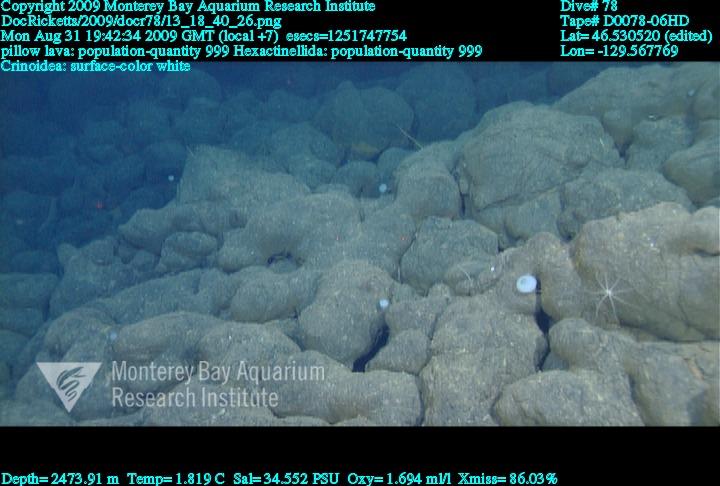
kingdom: Animalia
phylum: Porifera
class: Hexactinellida
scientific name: Hexactinellida
